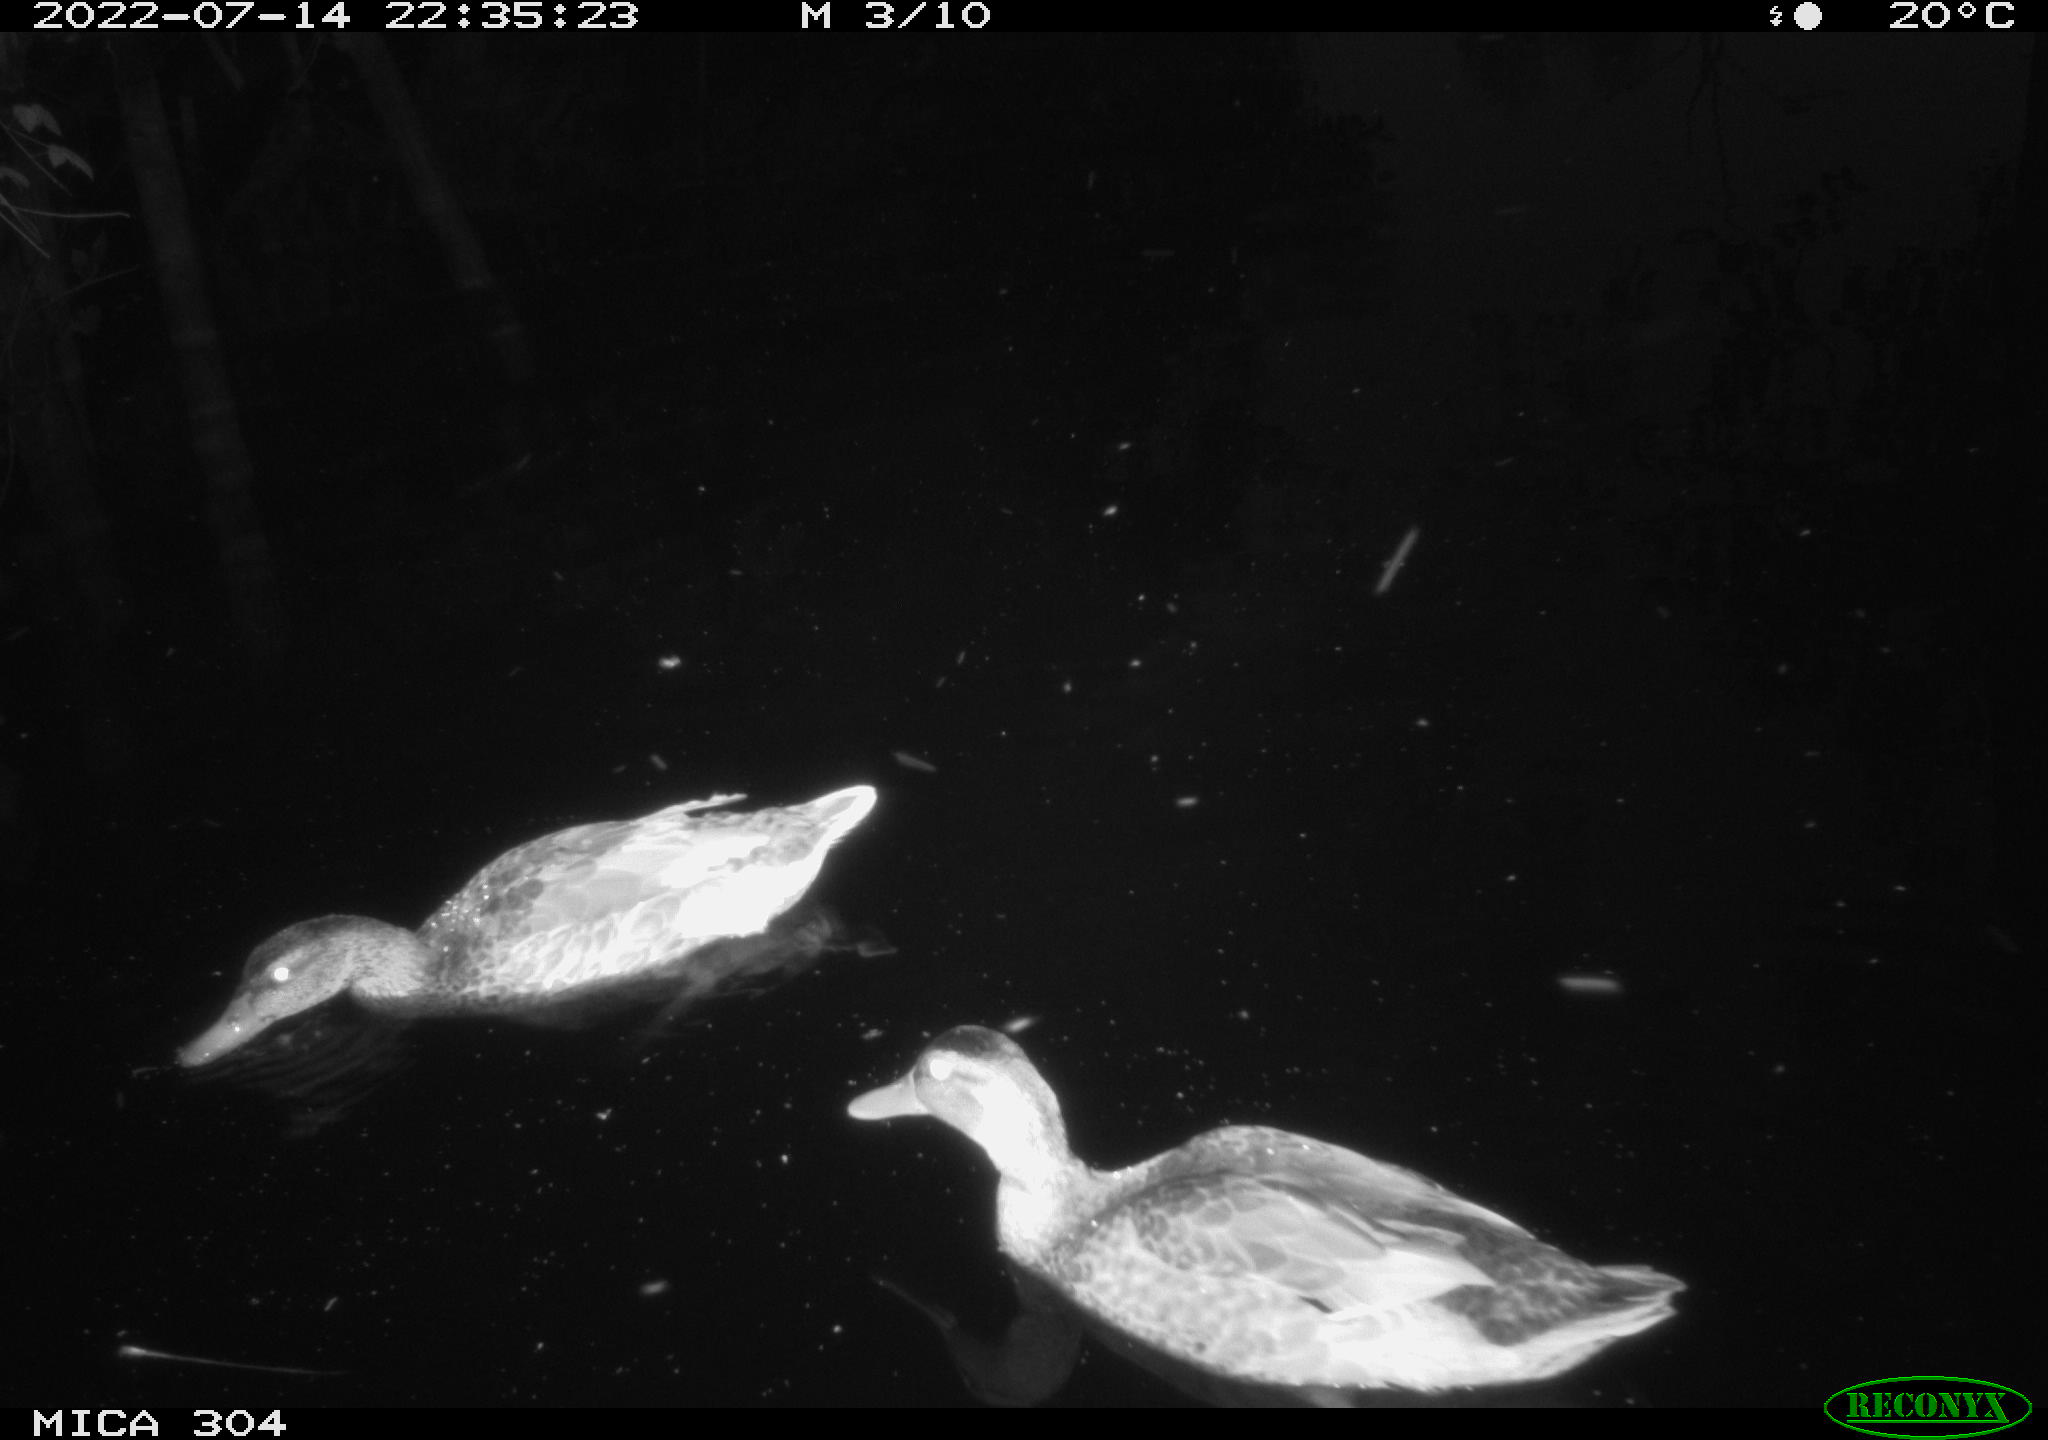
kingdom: Animalia
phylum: Chordata
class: Aves
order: Anseriformes
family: Anatidae
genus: Mareca
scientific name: Mareca strepera
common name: Gadwall
